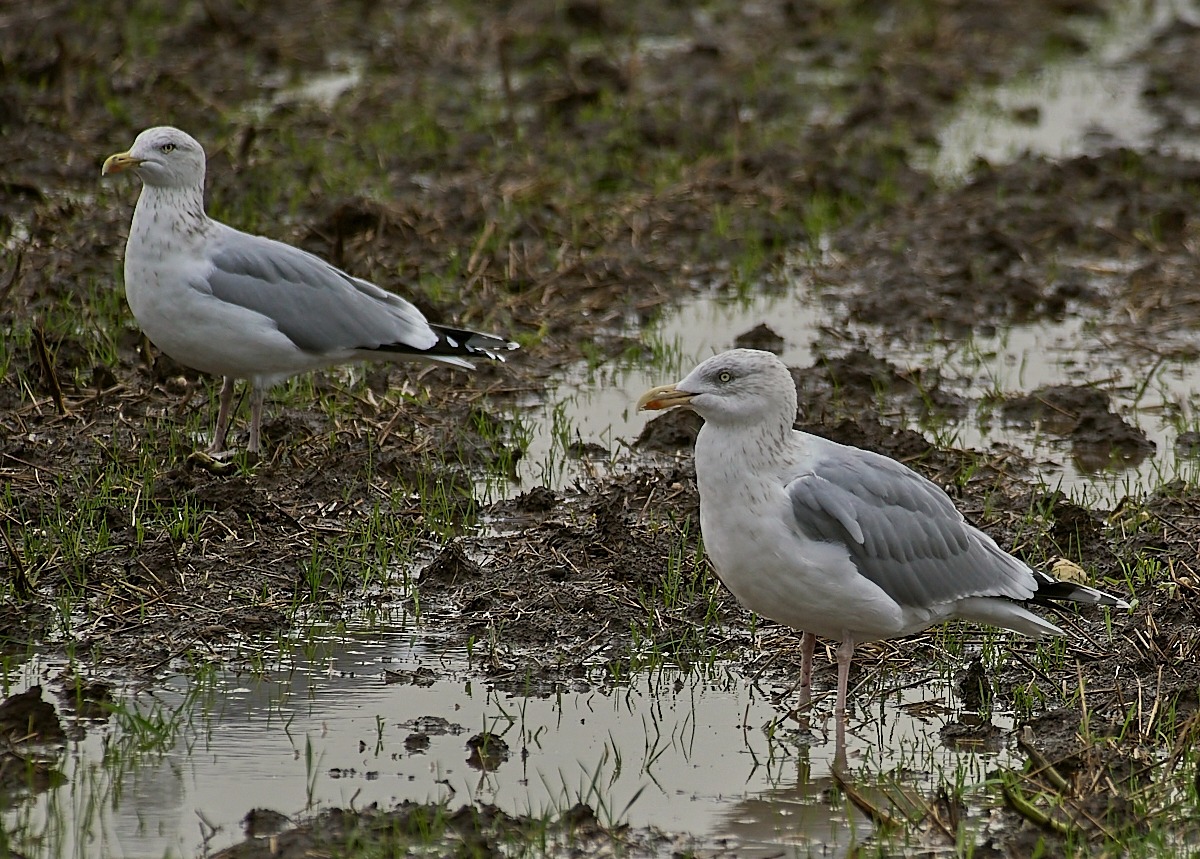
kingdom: Animalia
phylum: Chordata
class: Aves
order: Charadriiformes
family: Laridae
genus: Larus
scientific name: Larus argentatus
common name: Sølvmåge
